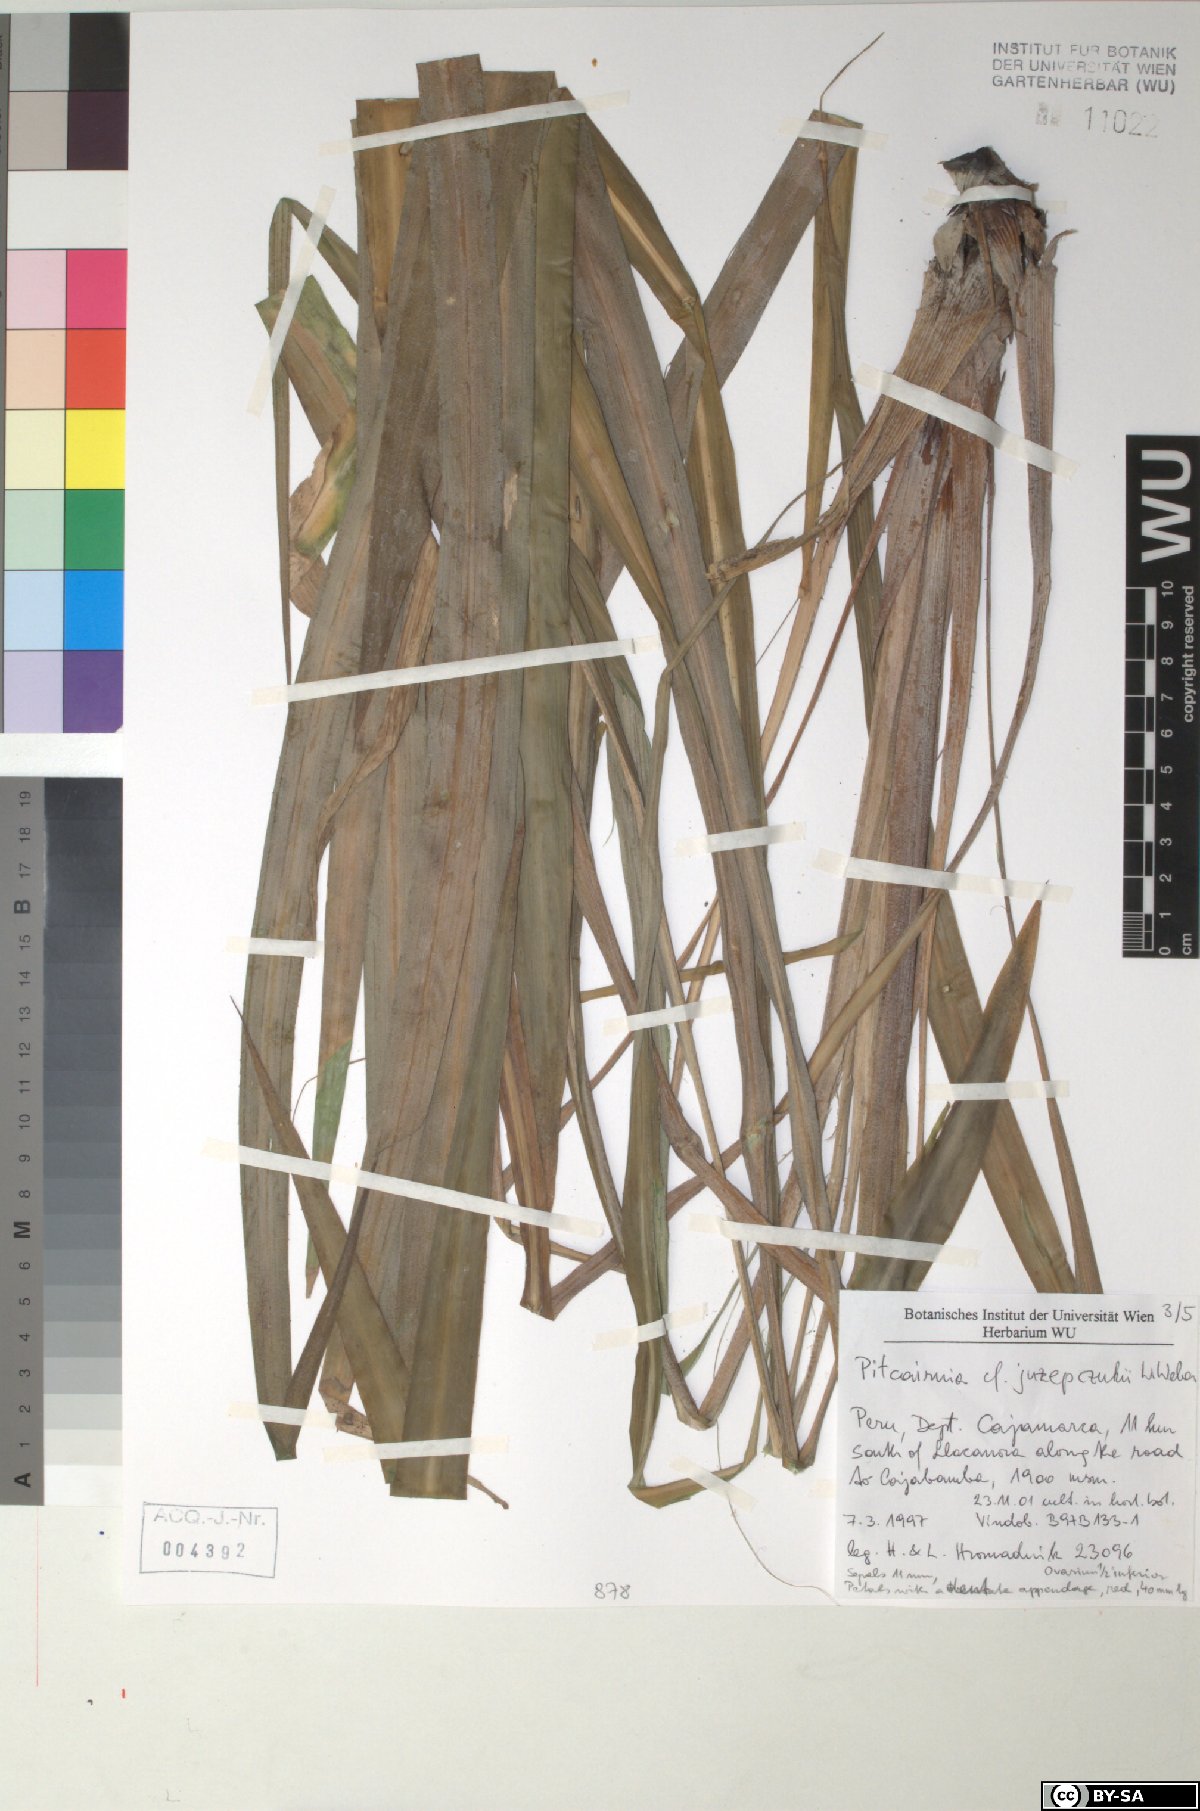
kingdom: Plantae
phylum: Tracheophyta
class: Liliopsida
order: Poales
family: Bromeliaceae
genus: Pitcairnia
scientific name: Pitcairnia juzepczukii
